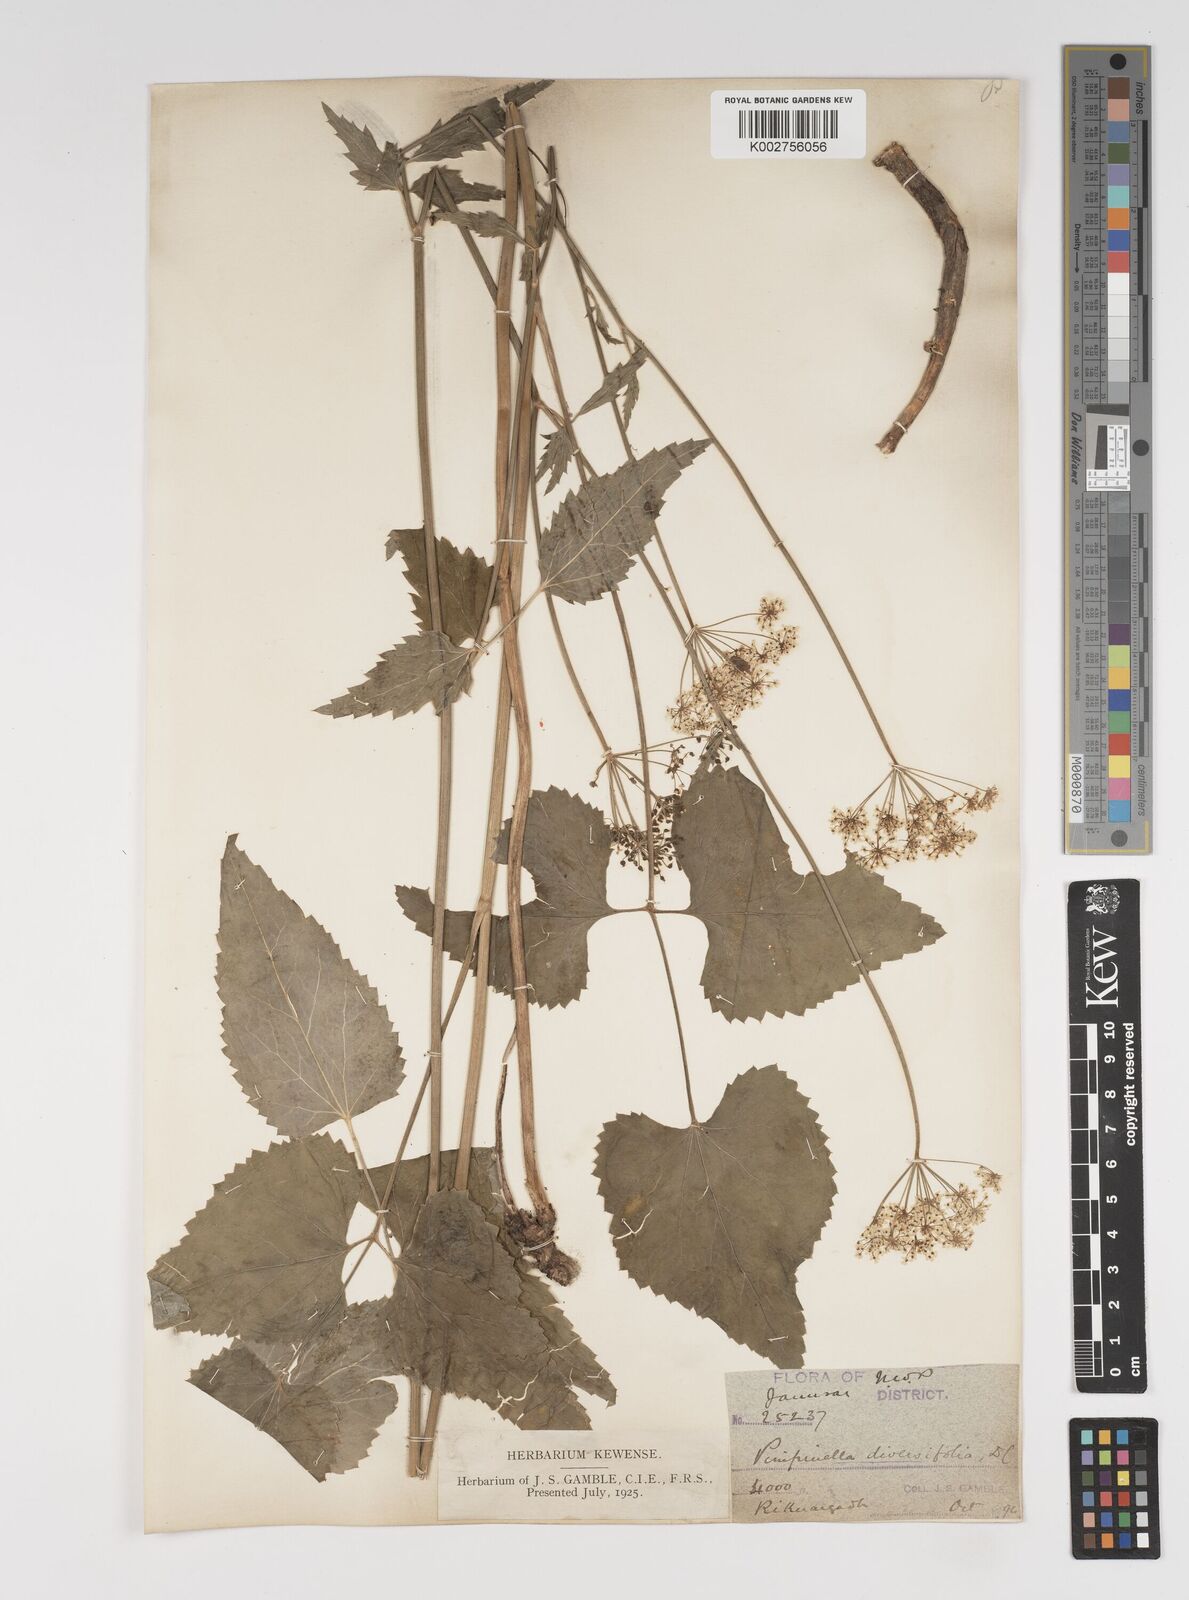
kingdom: Plantae
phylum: Tracheophyta
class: Magnoliopsida
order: Apiales
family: Apiaceae
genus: Pimpinella
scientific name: Pimpinella diversifolia
